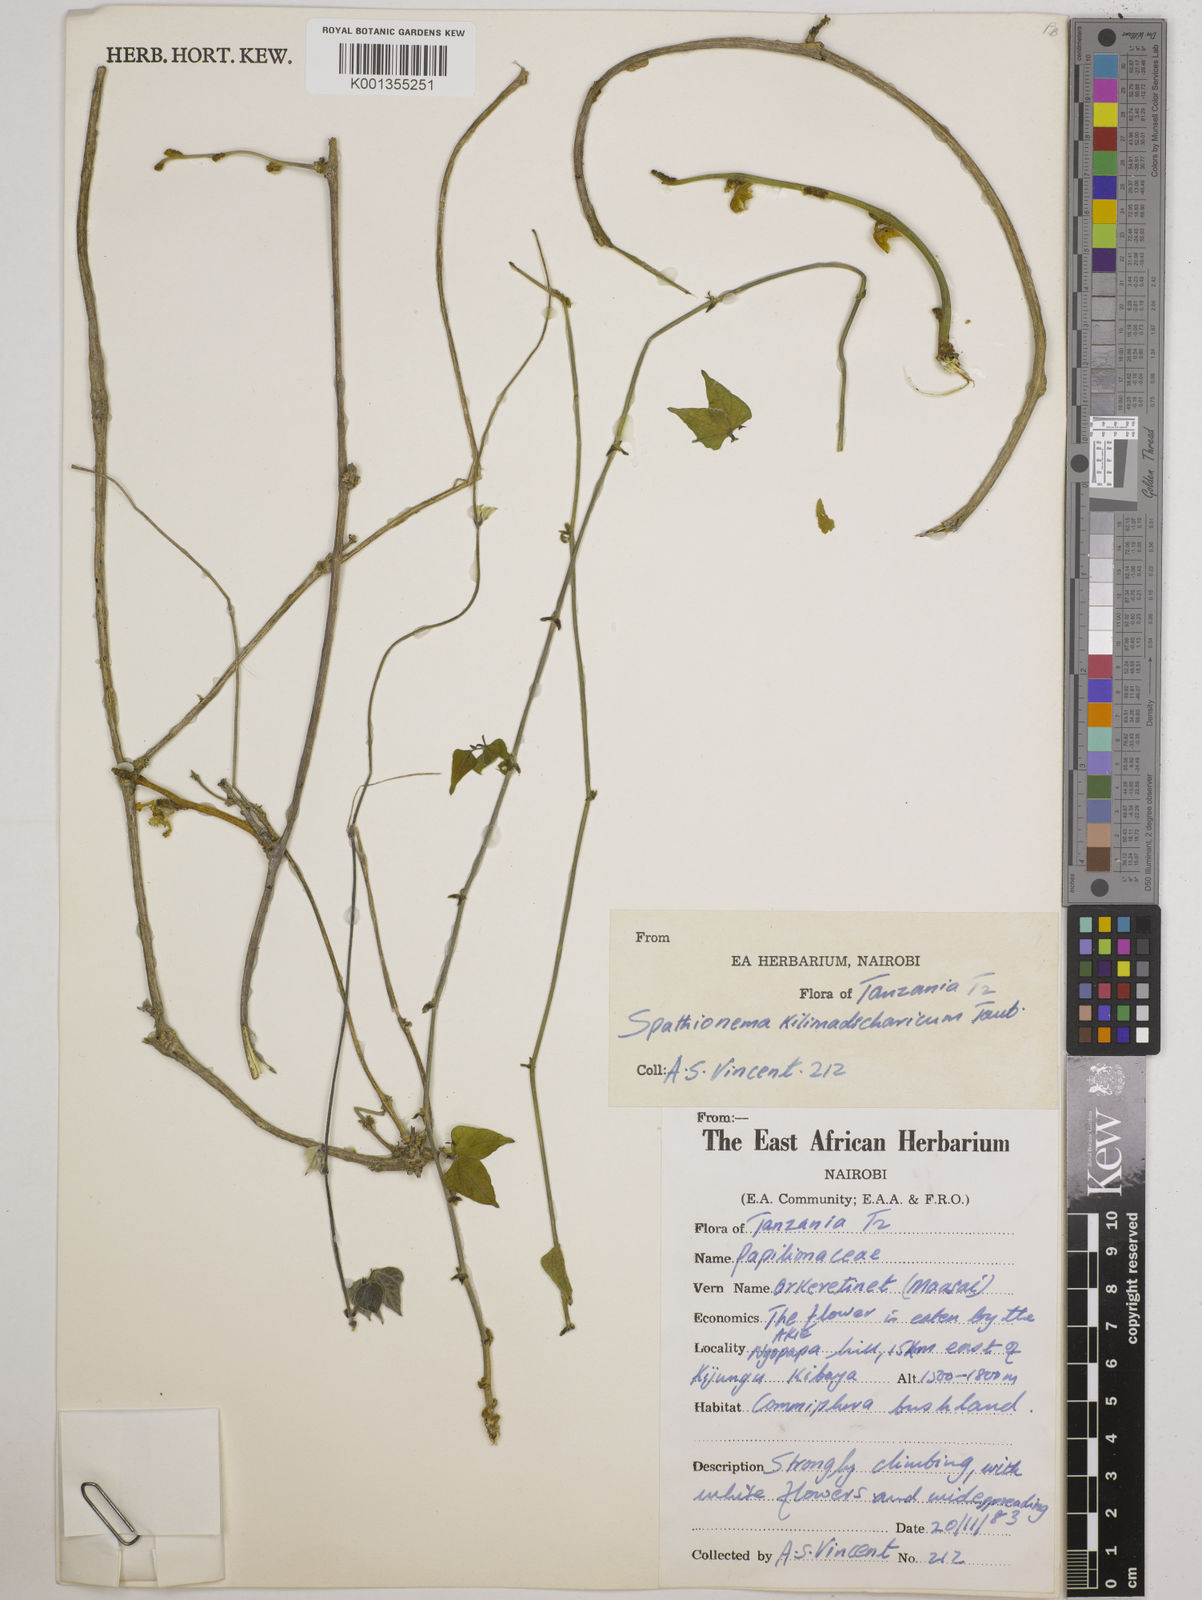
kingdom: Plantae
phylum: Tracheophyta
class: Magnoliopsida
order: Fabales
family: Fabaceae
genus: Spathionema
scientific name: Spathionema kilimandscharicum
